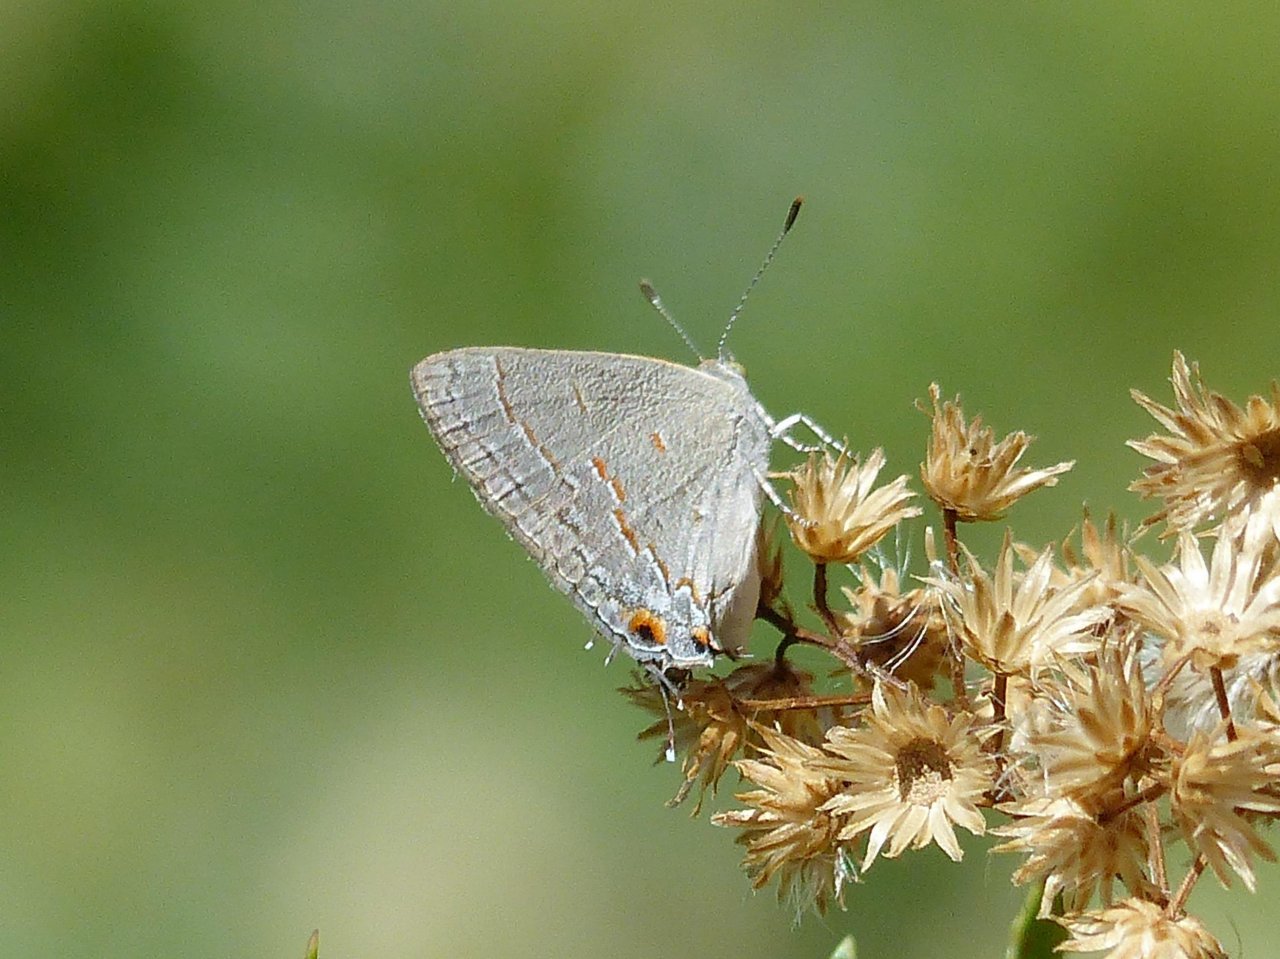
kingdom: Animalia
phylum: Arthropoda
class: Insecta
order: Lepidoptera
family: Lycaenidae
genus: Ministrymon
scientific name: Ministrymon leda
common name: Leda Ministreak
